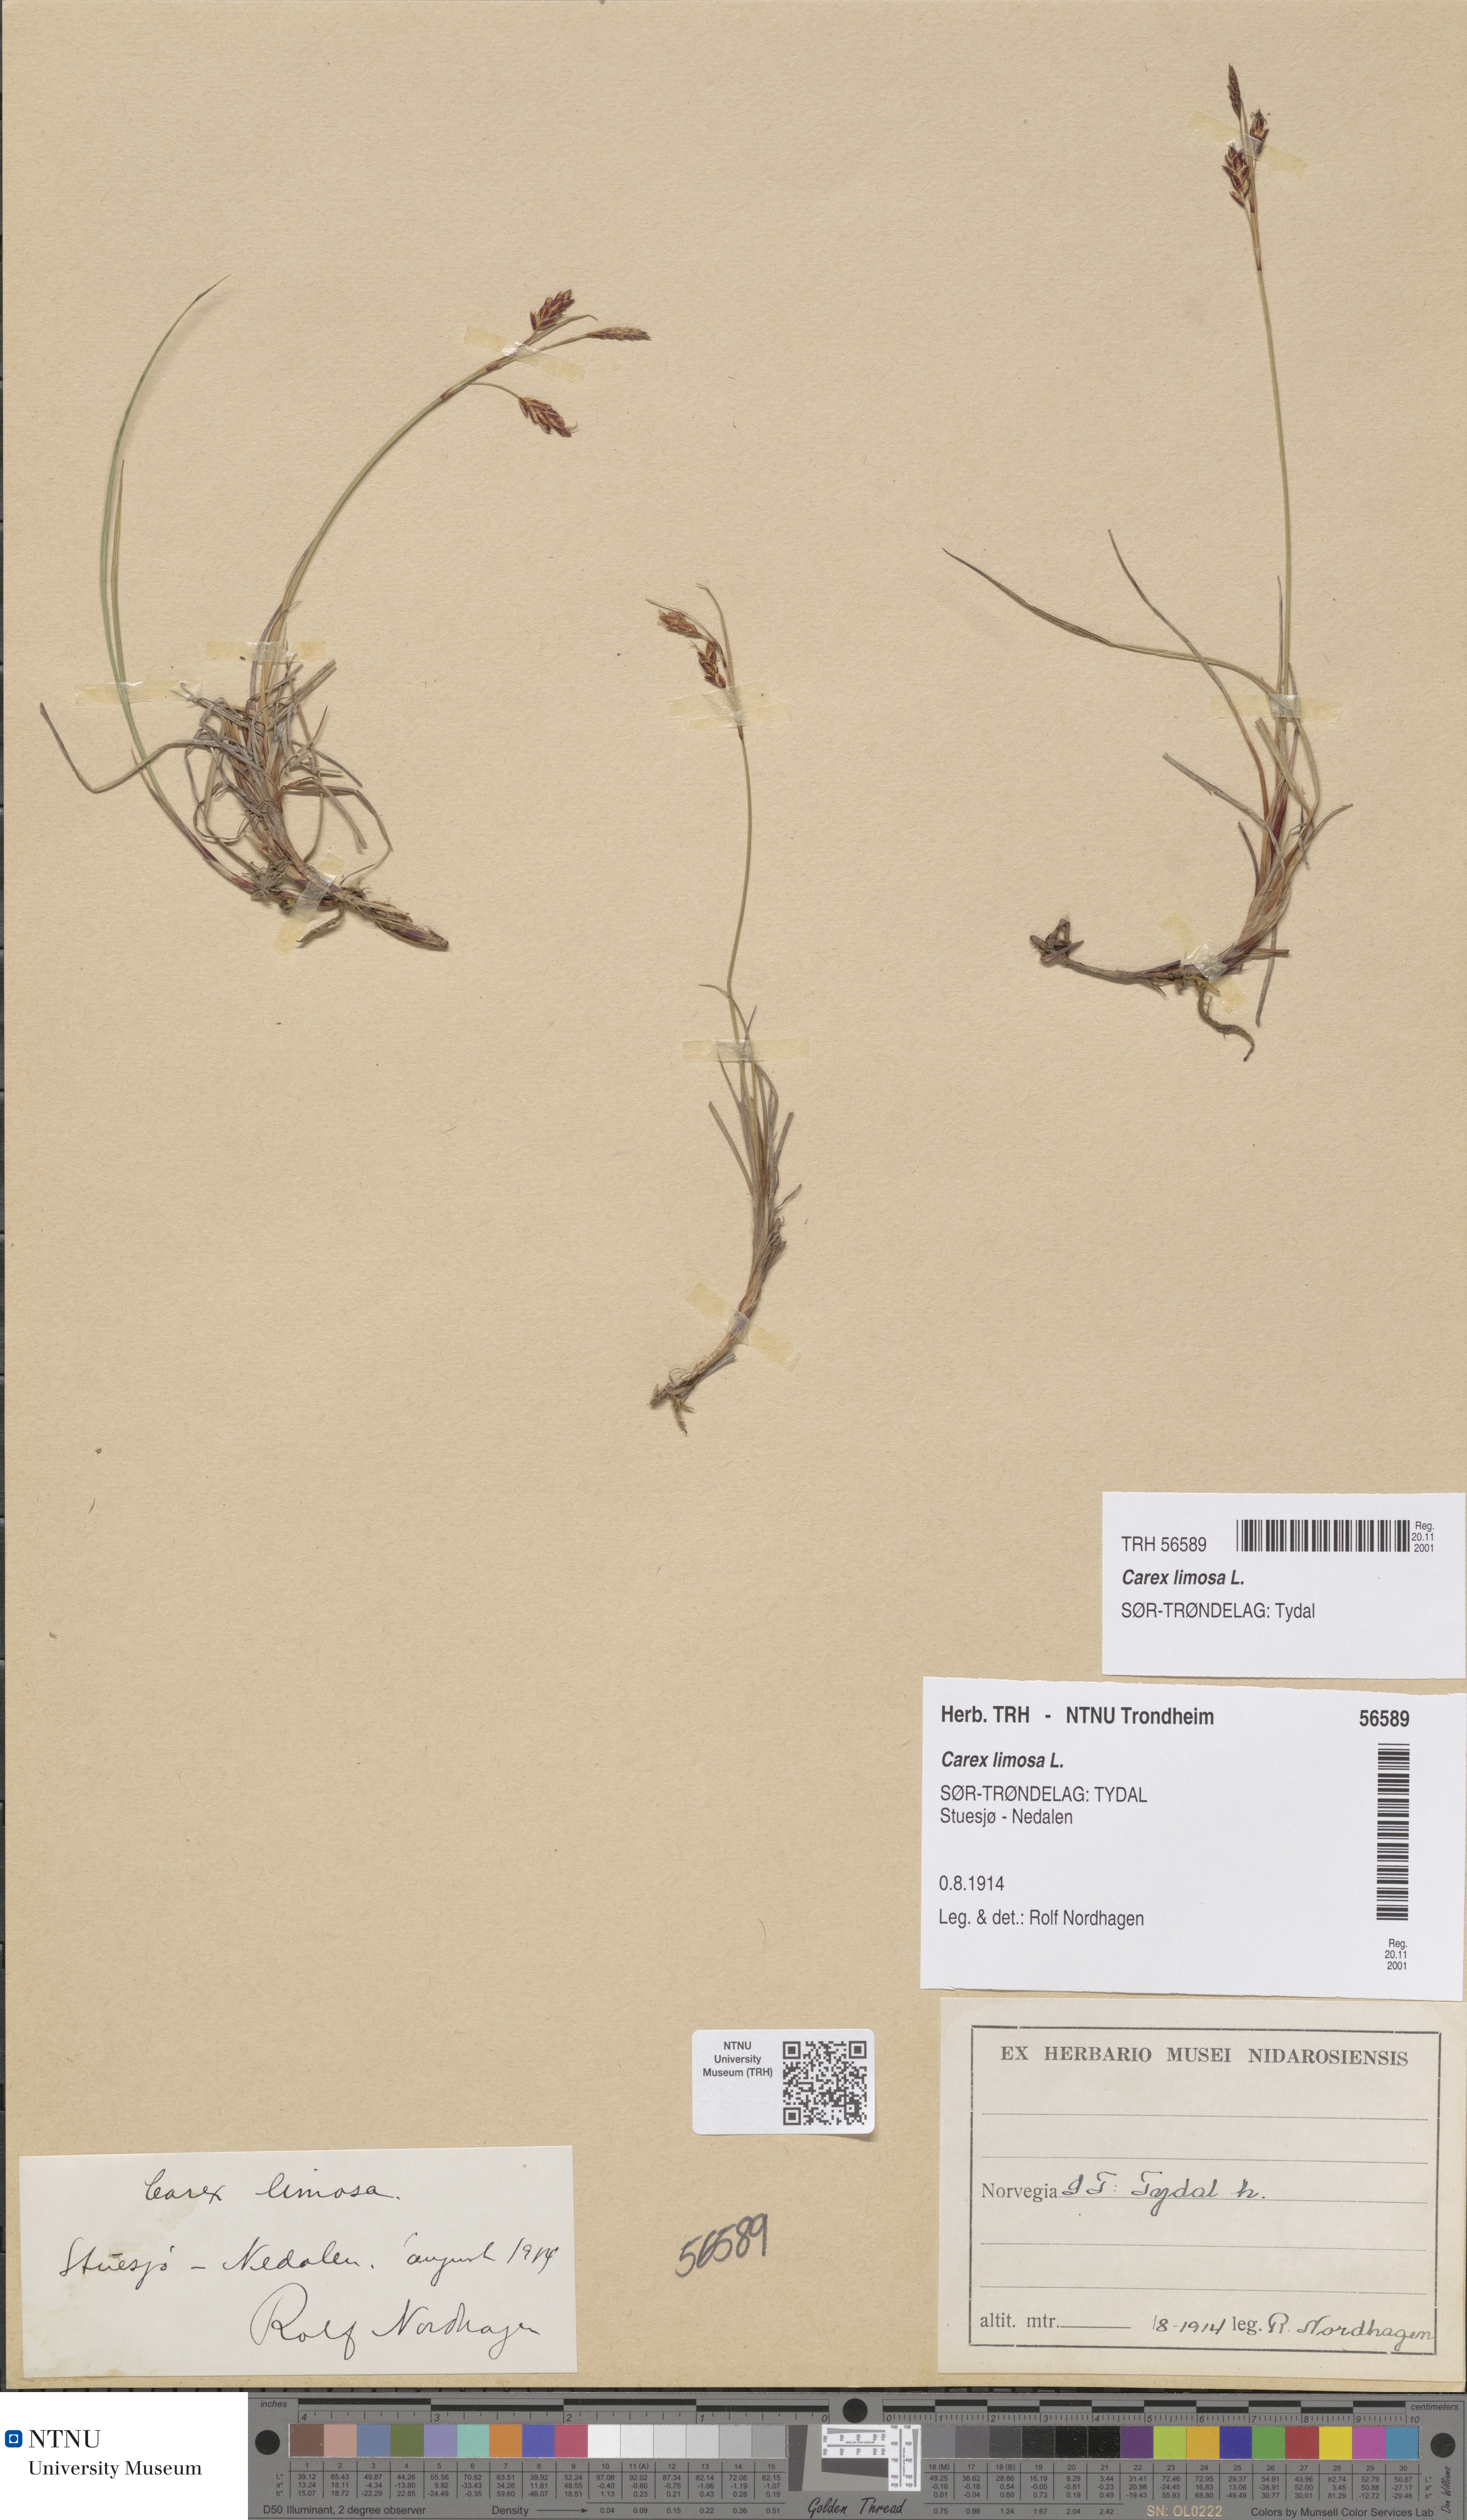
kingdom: Plantae
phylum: Tracheophyta
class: Liliopsida
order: Poales
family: Cyperaceae
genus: Carex
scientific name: Carex limosa
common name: Bog sedge
